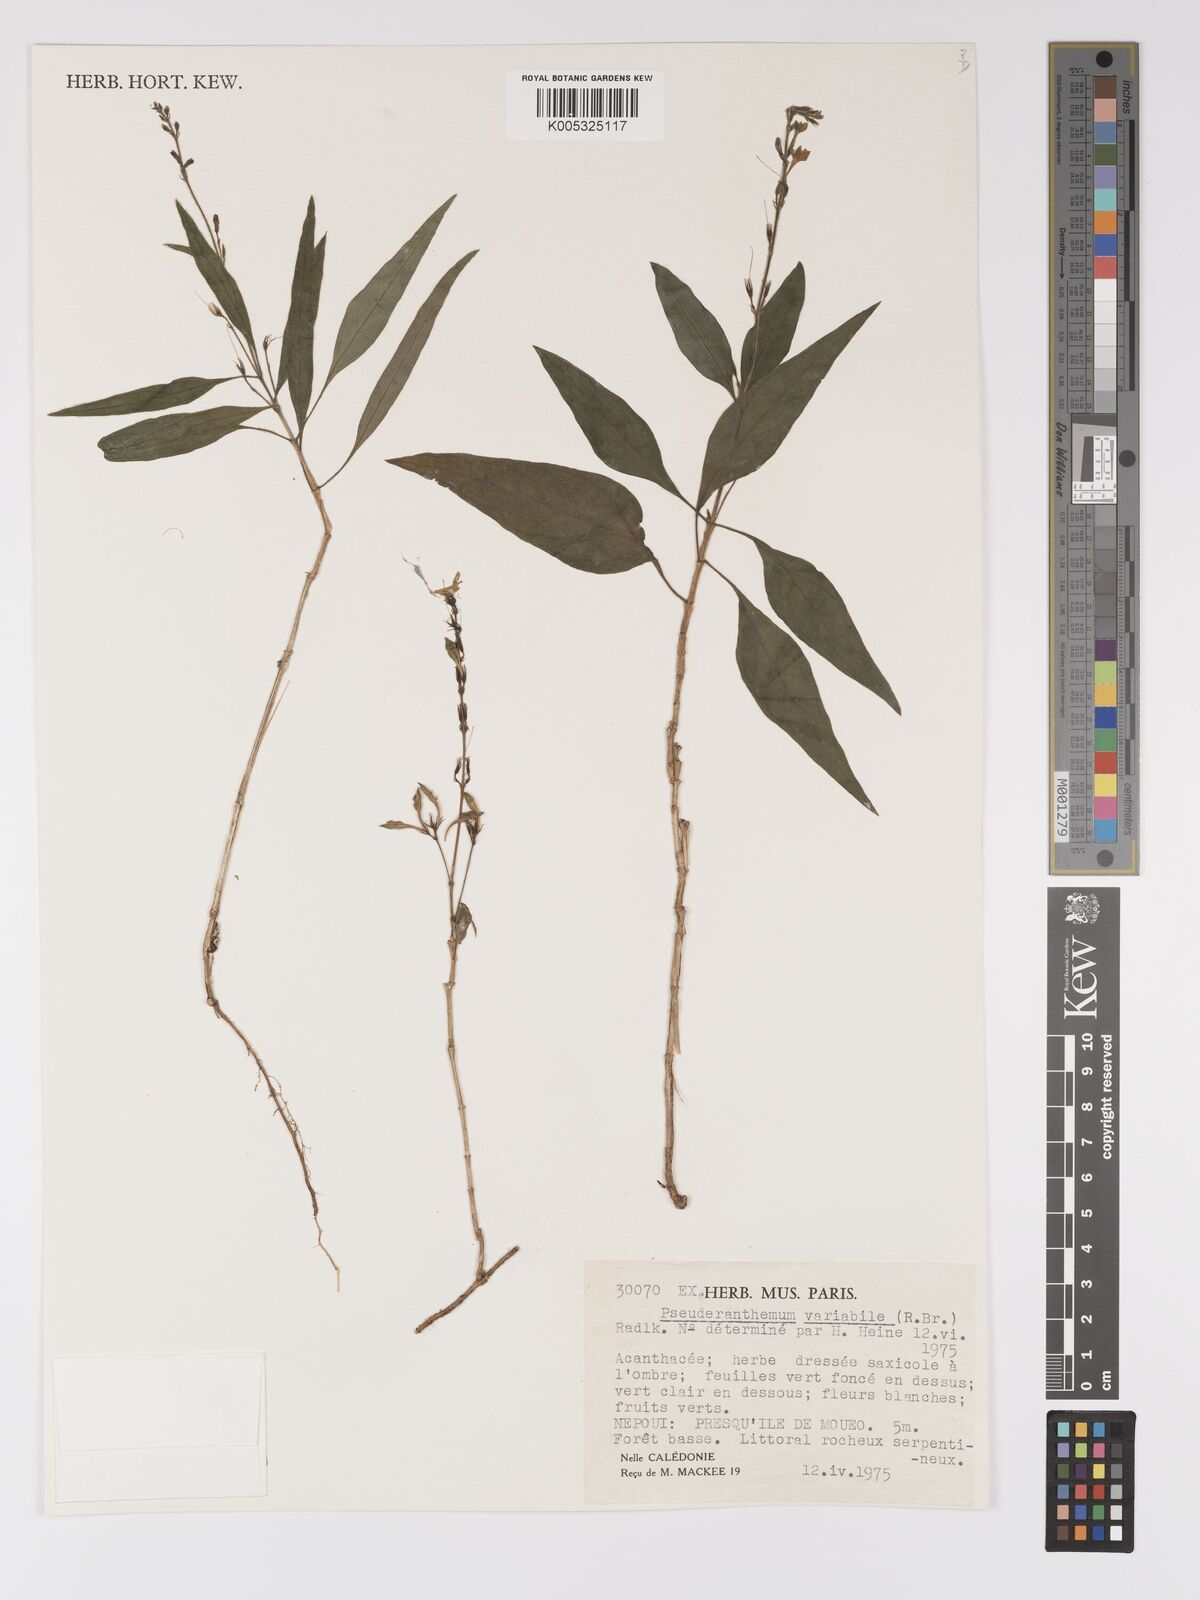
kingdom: Plantae
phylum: Tracheophyta
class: Magnoliopsida
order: Lamiales
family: Acanthaceae
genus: Pseuderanthemum
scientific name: Pseuderanthemum variabile
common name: Night and afternoon
